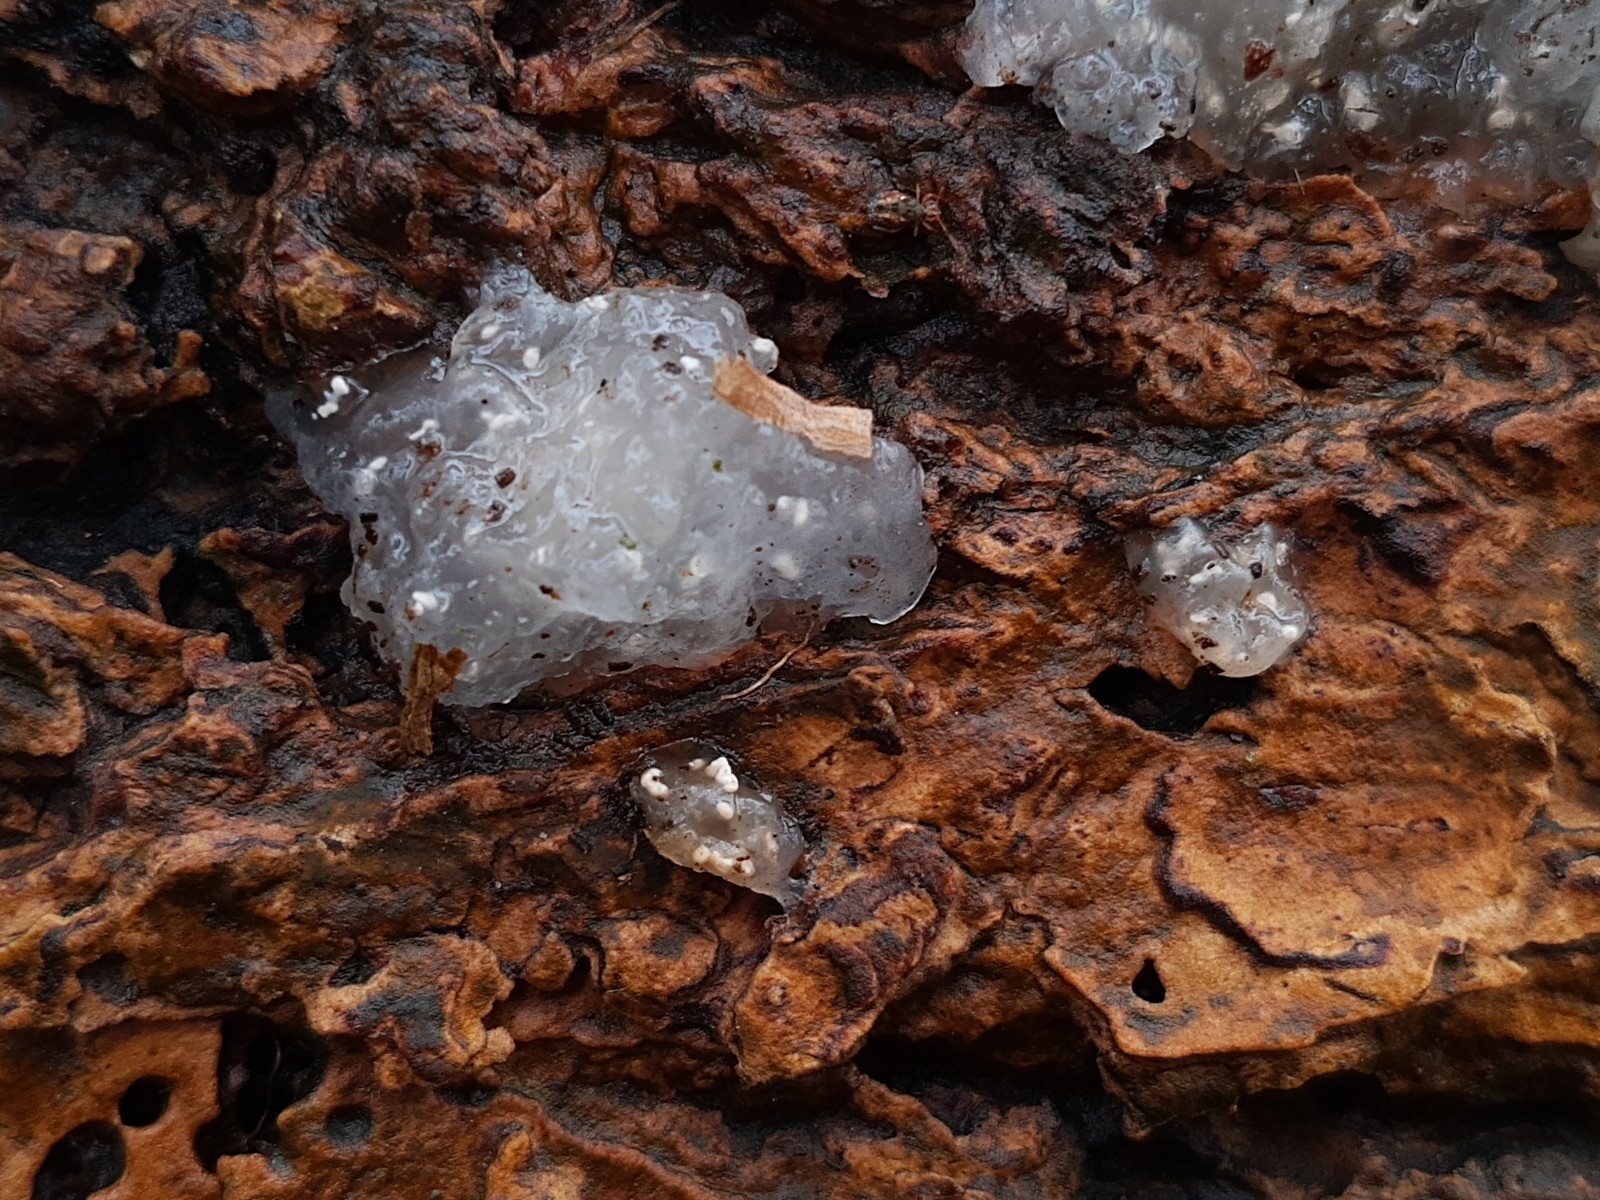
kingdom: Fungi
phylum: Basidiomycota
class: Agaricomycetes
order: Auriculariales
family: Hyaloriaceae
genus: Myxarium
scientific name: Myxarium nucleatum
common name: klar bævretop
